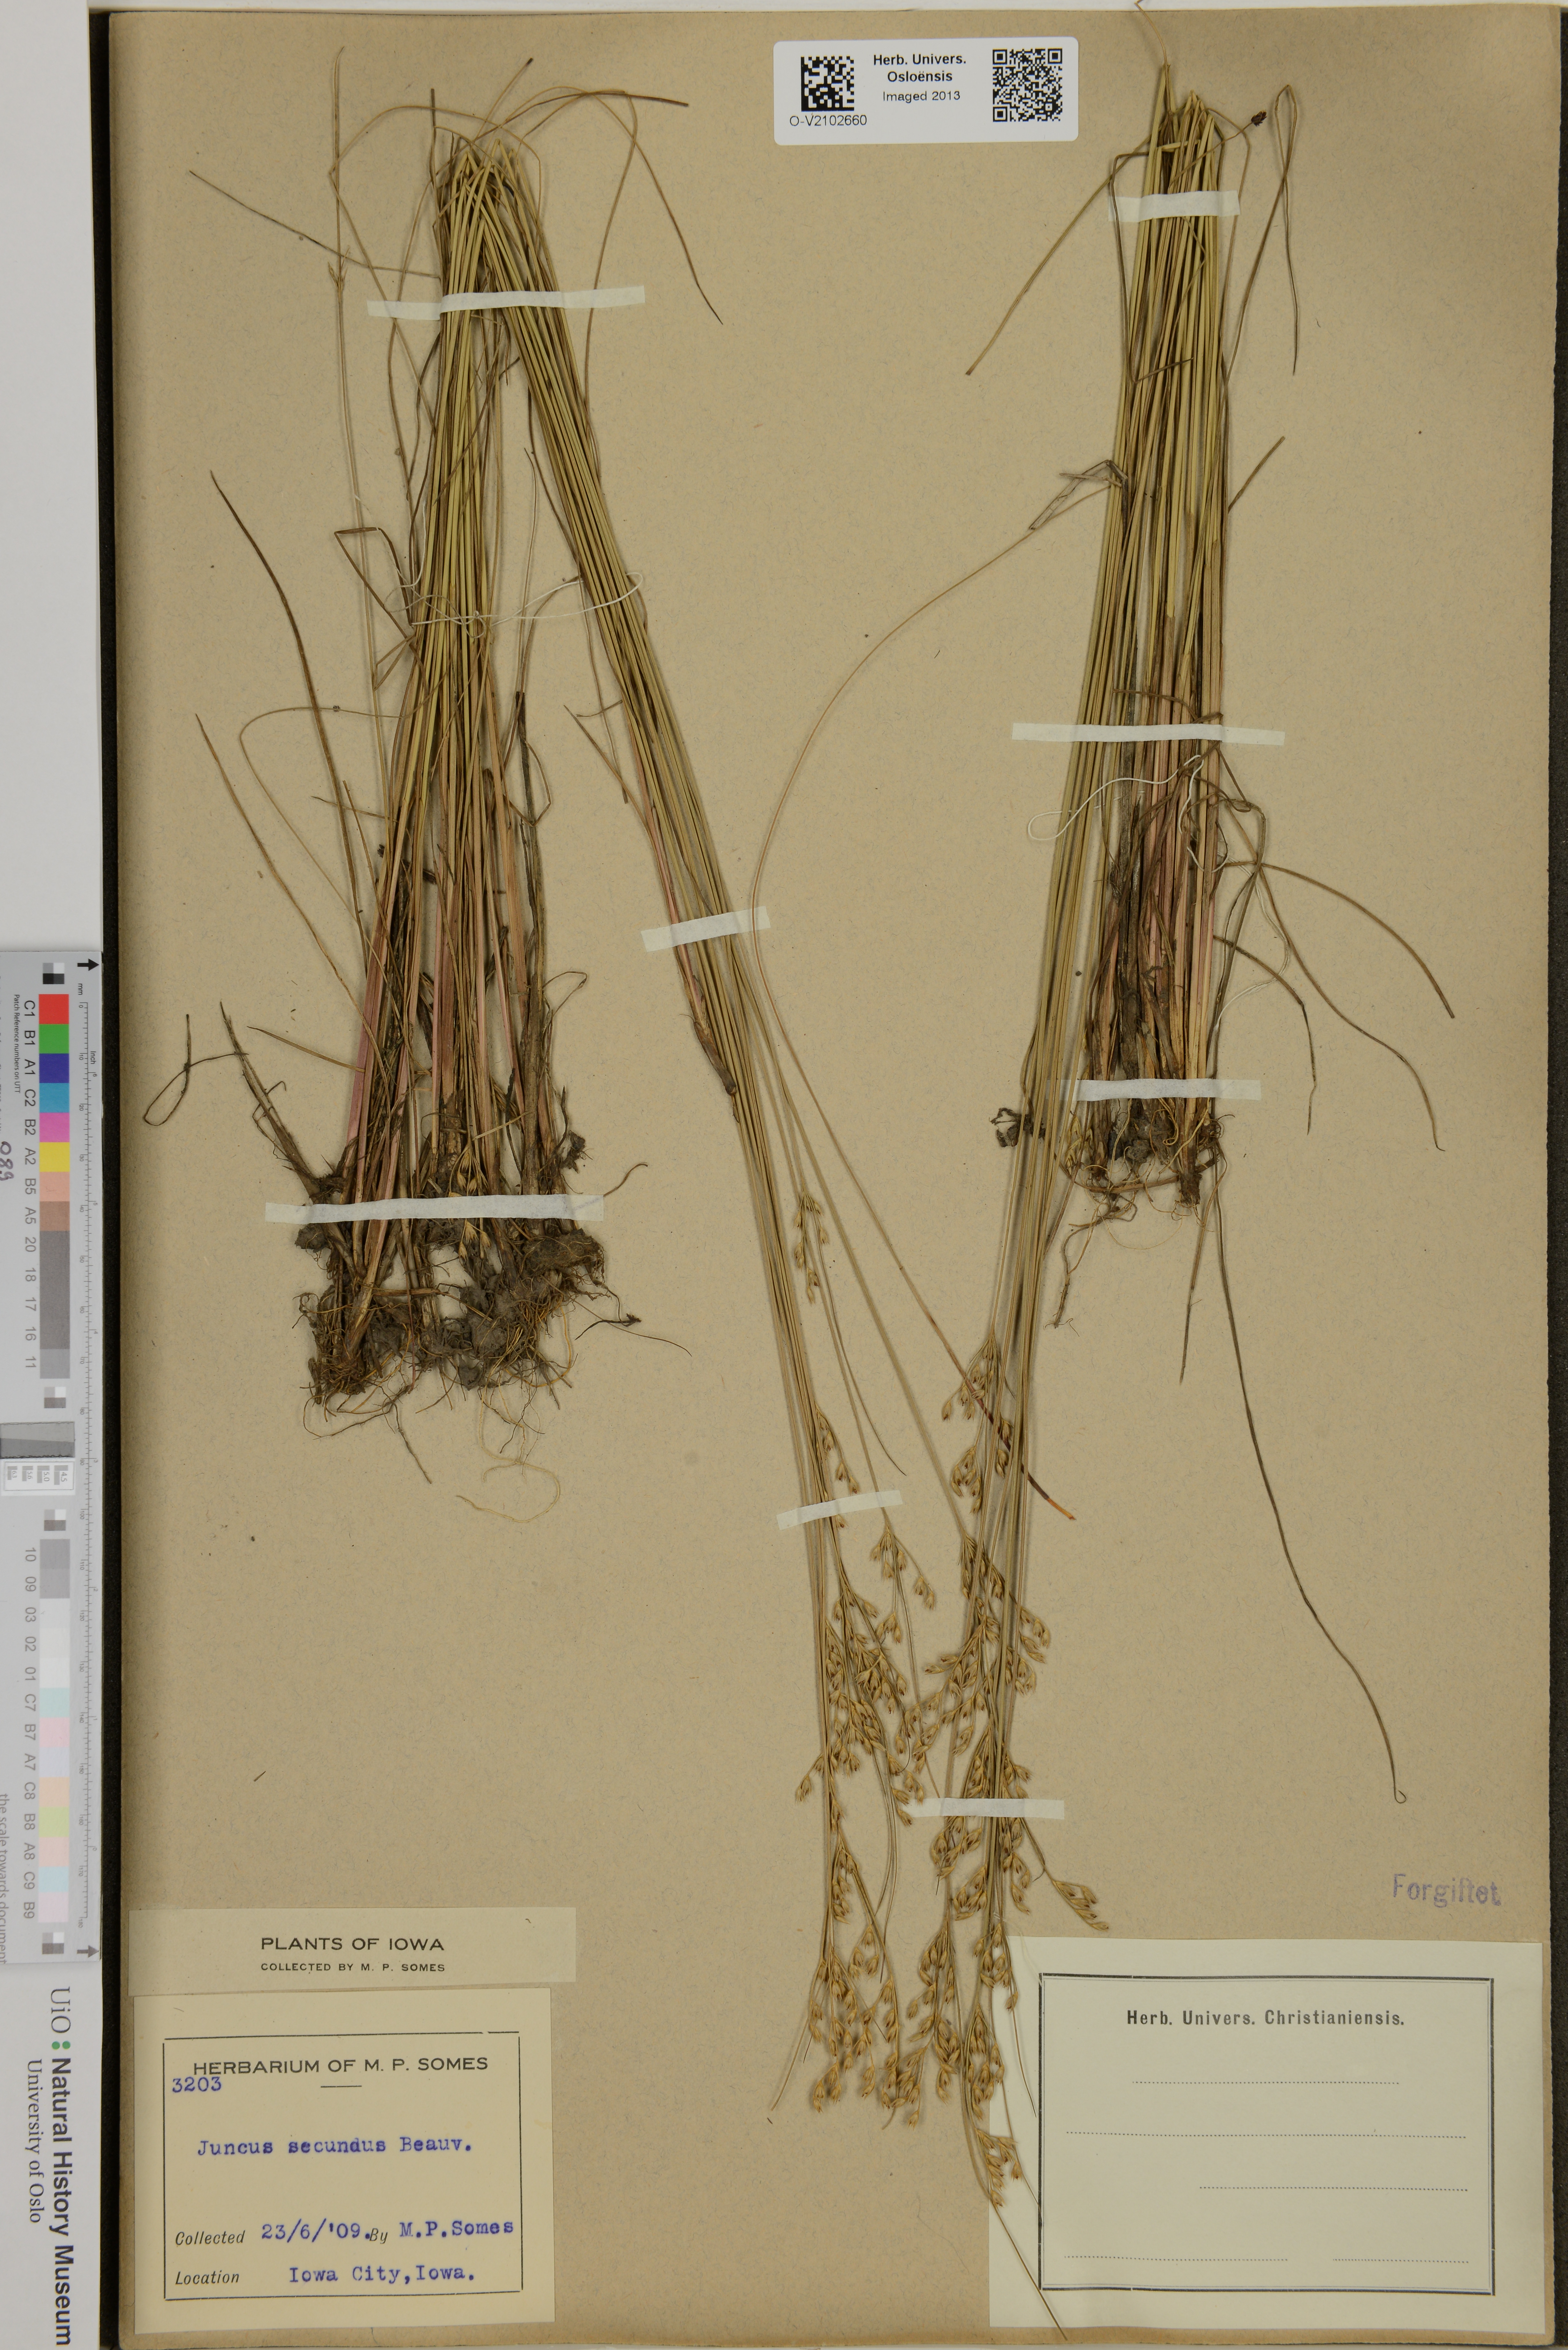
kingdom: Plantae
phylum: Tracheophyta
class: Liliopsida
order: Poales
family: Juncaceae
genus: Juncus
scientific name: Juncus secundus
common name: Lopsided rush
